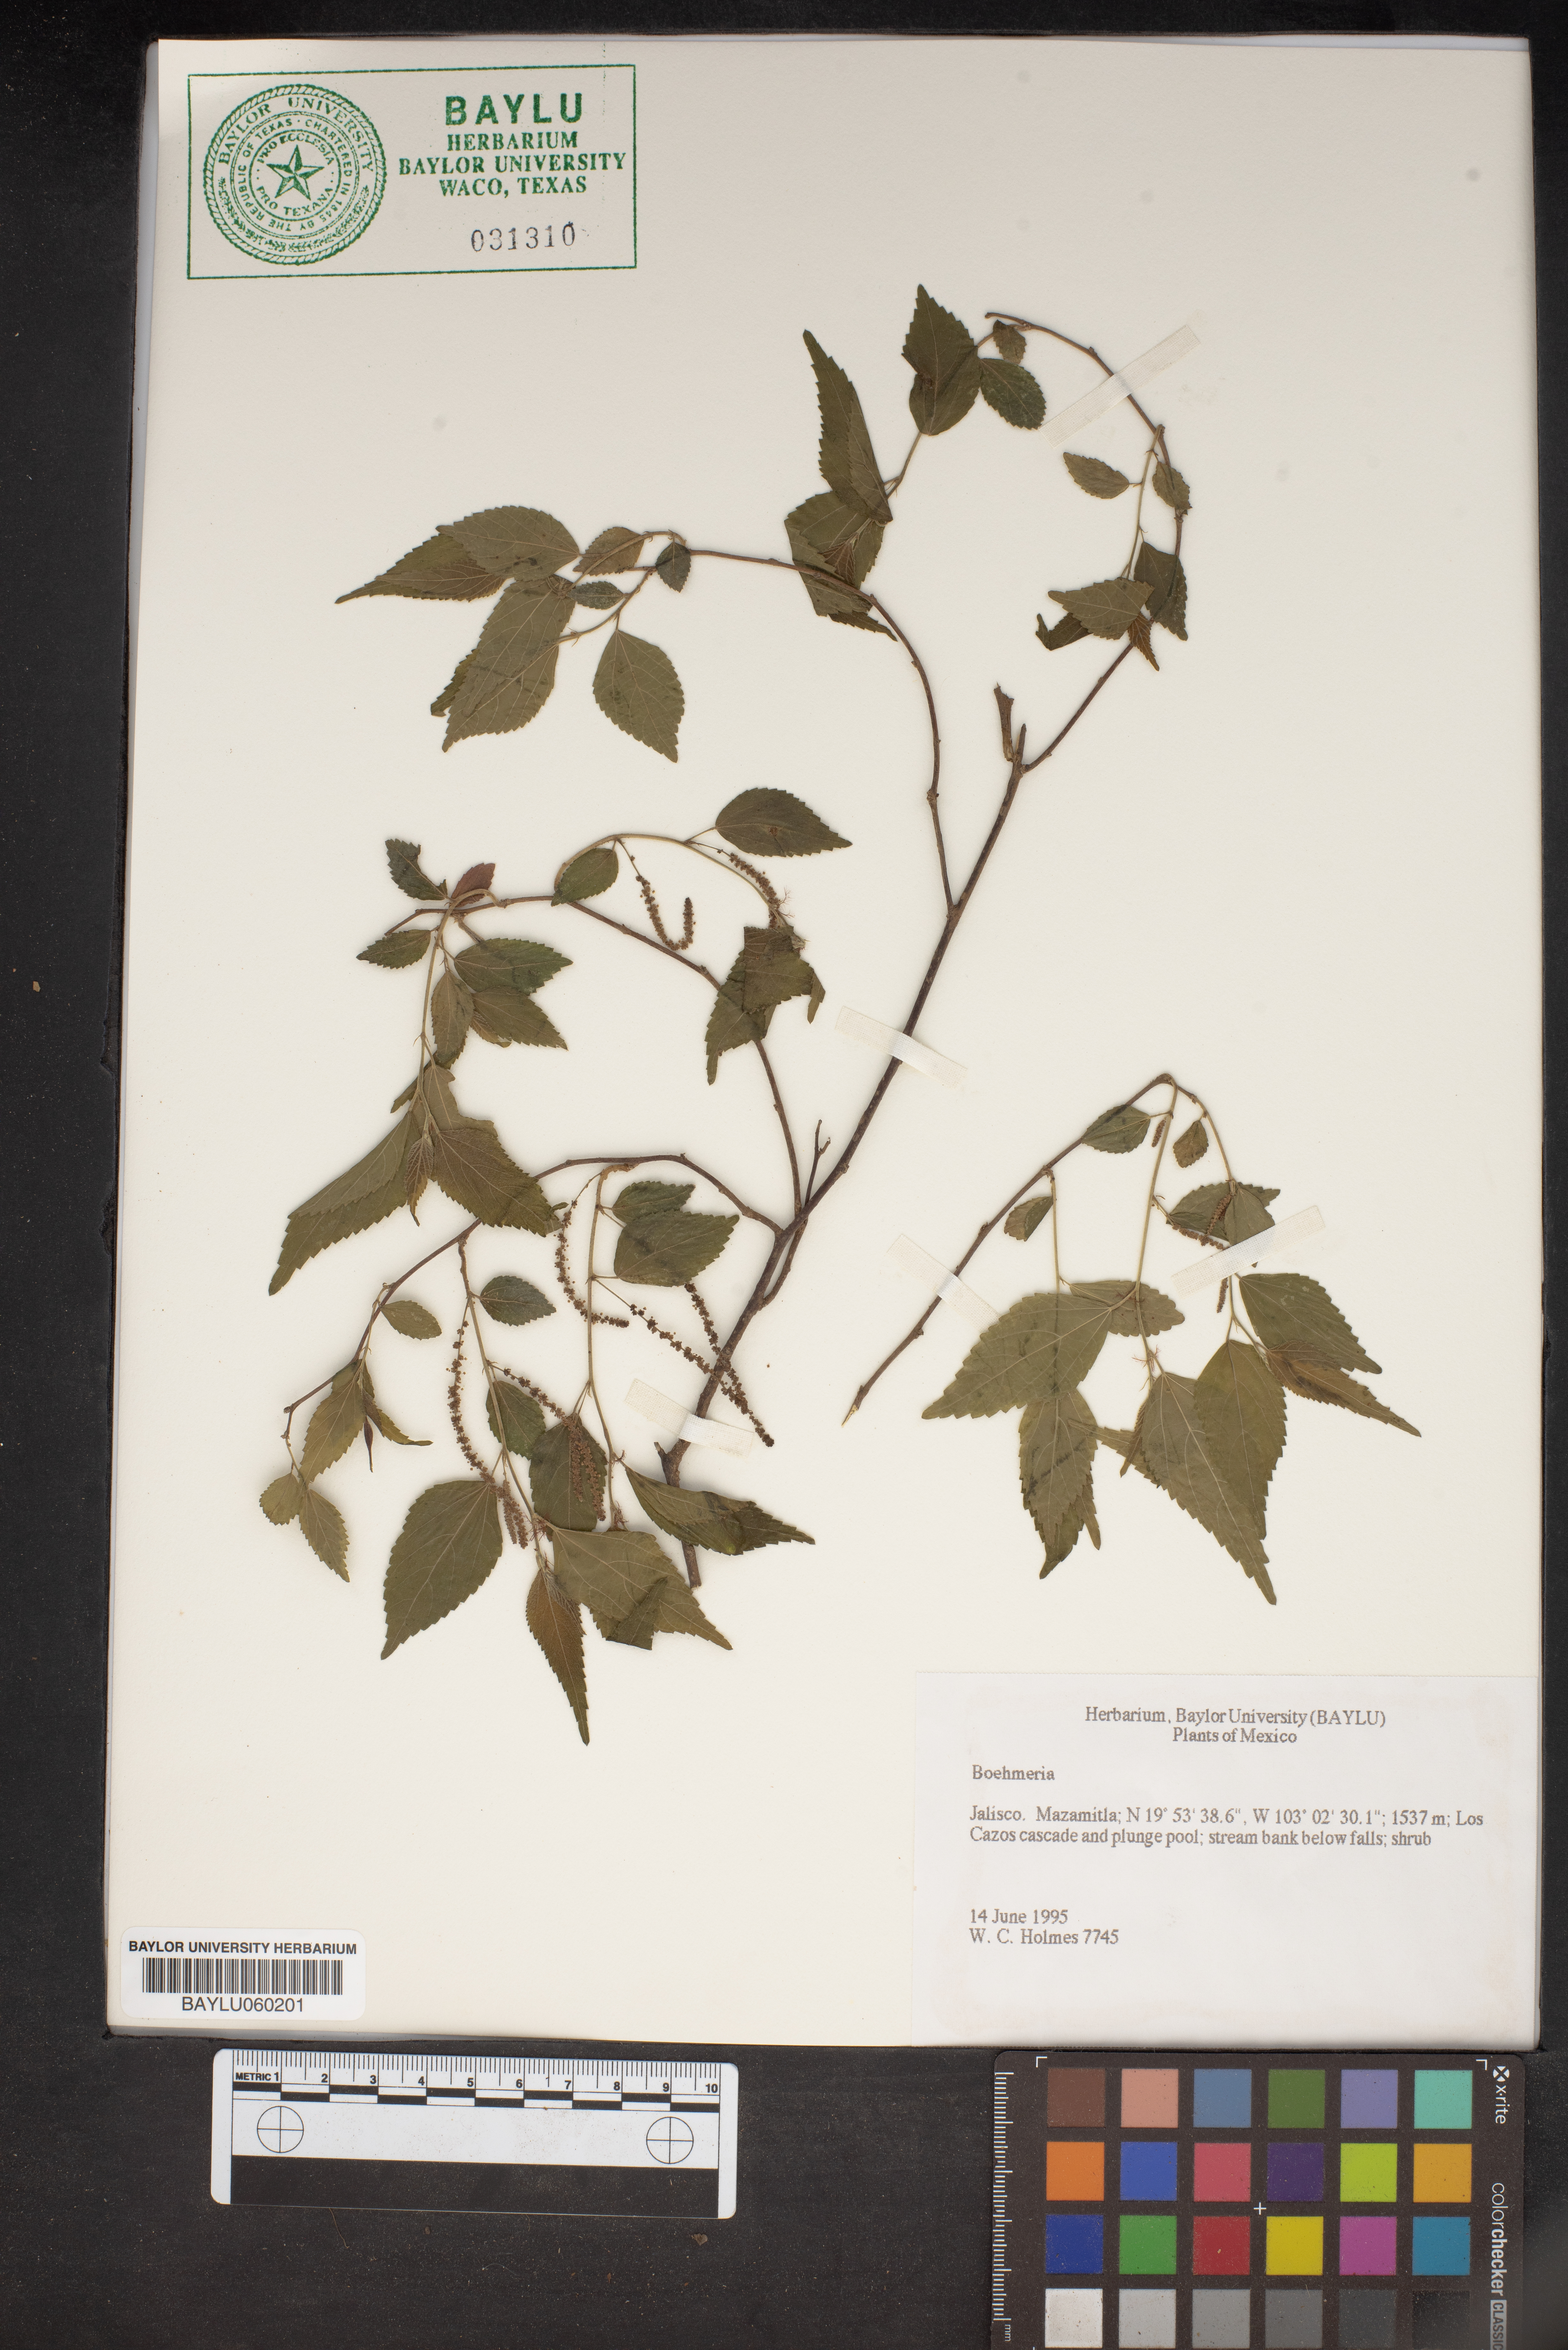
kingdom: Plantae
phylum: Tracheophyta
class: Magnoliopsida
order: Rosales
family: Urticaceae
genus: Boehmeria
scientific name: Boehmeria
